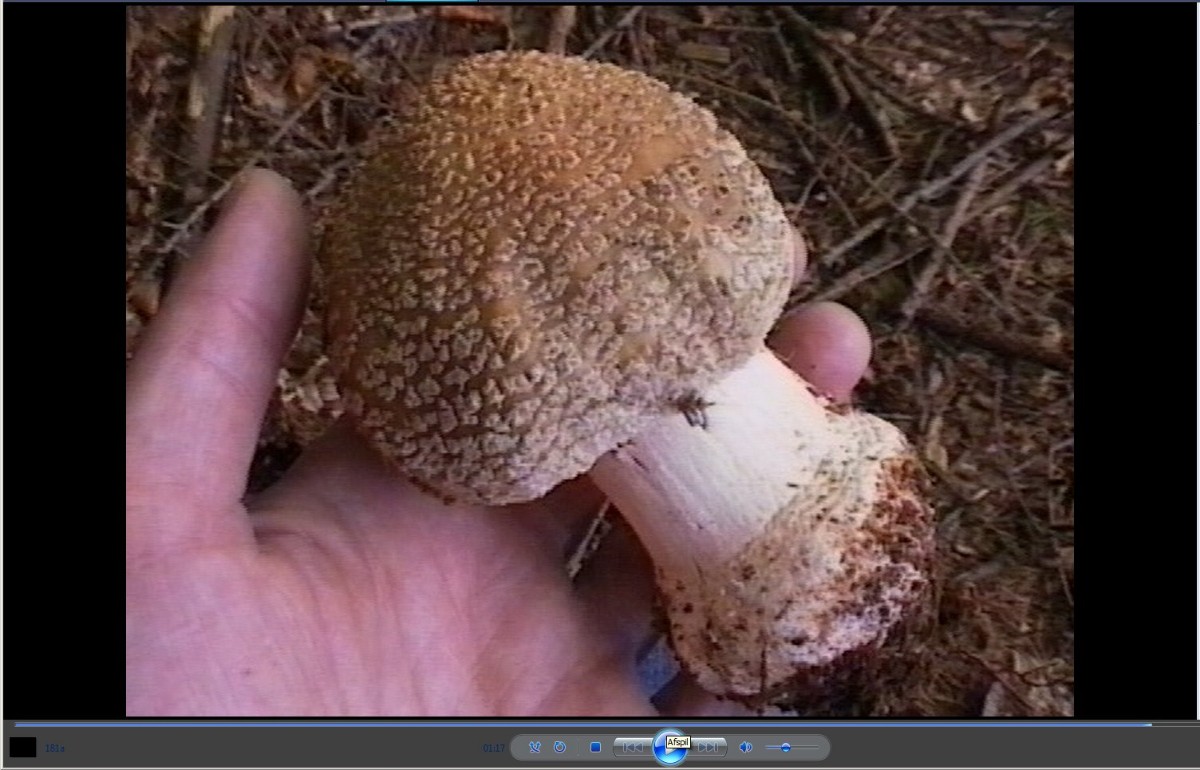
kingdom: Fungi
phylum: Basidiomycota
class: Agaricomycetes
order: Agaricales
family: Amanitaceae
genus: Amanita
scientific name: Amanita rubescens
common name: rødmende fluesvamp
